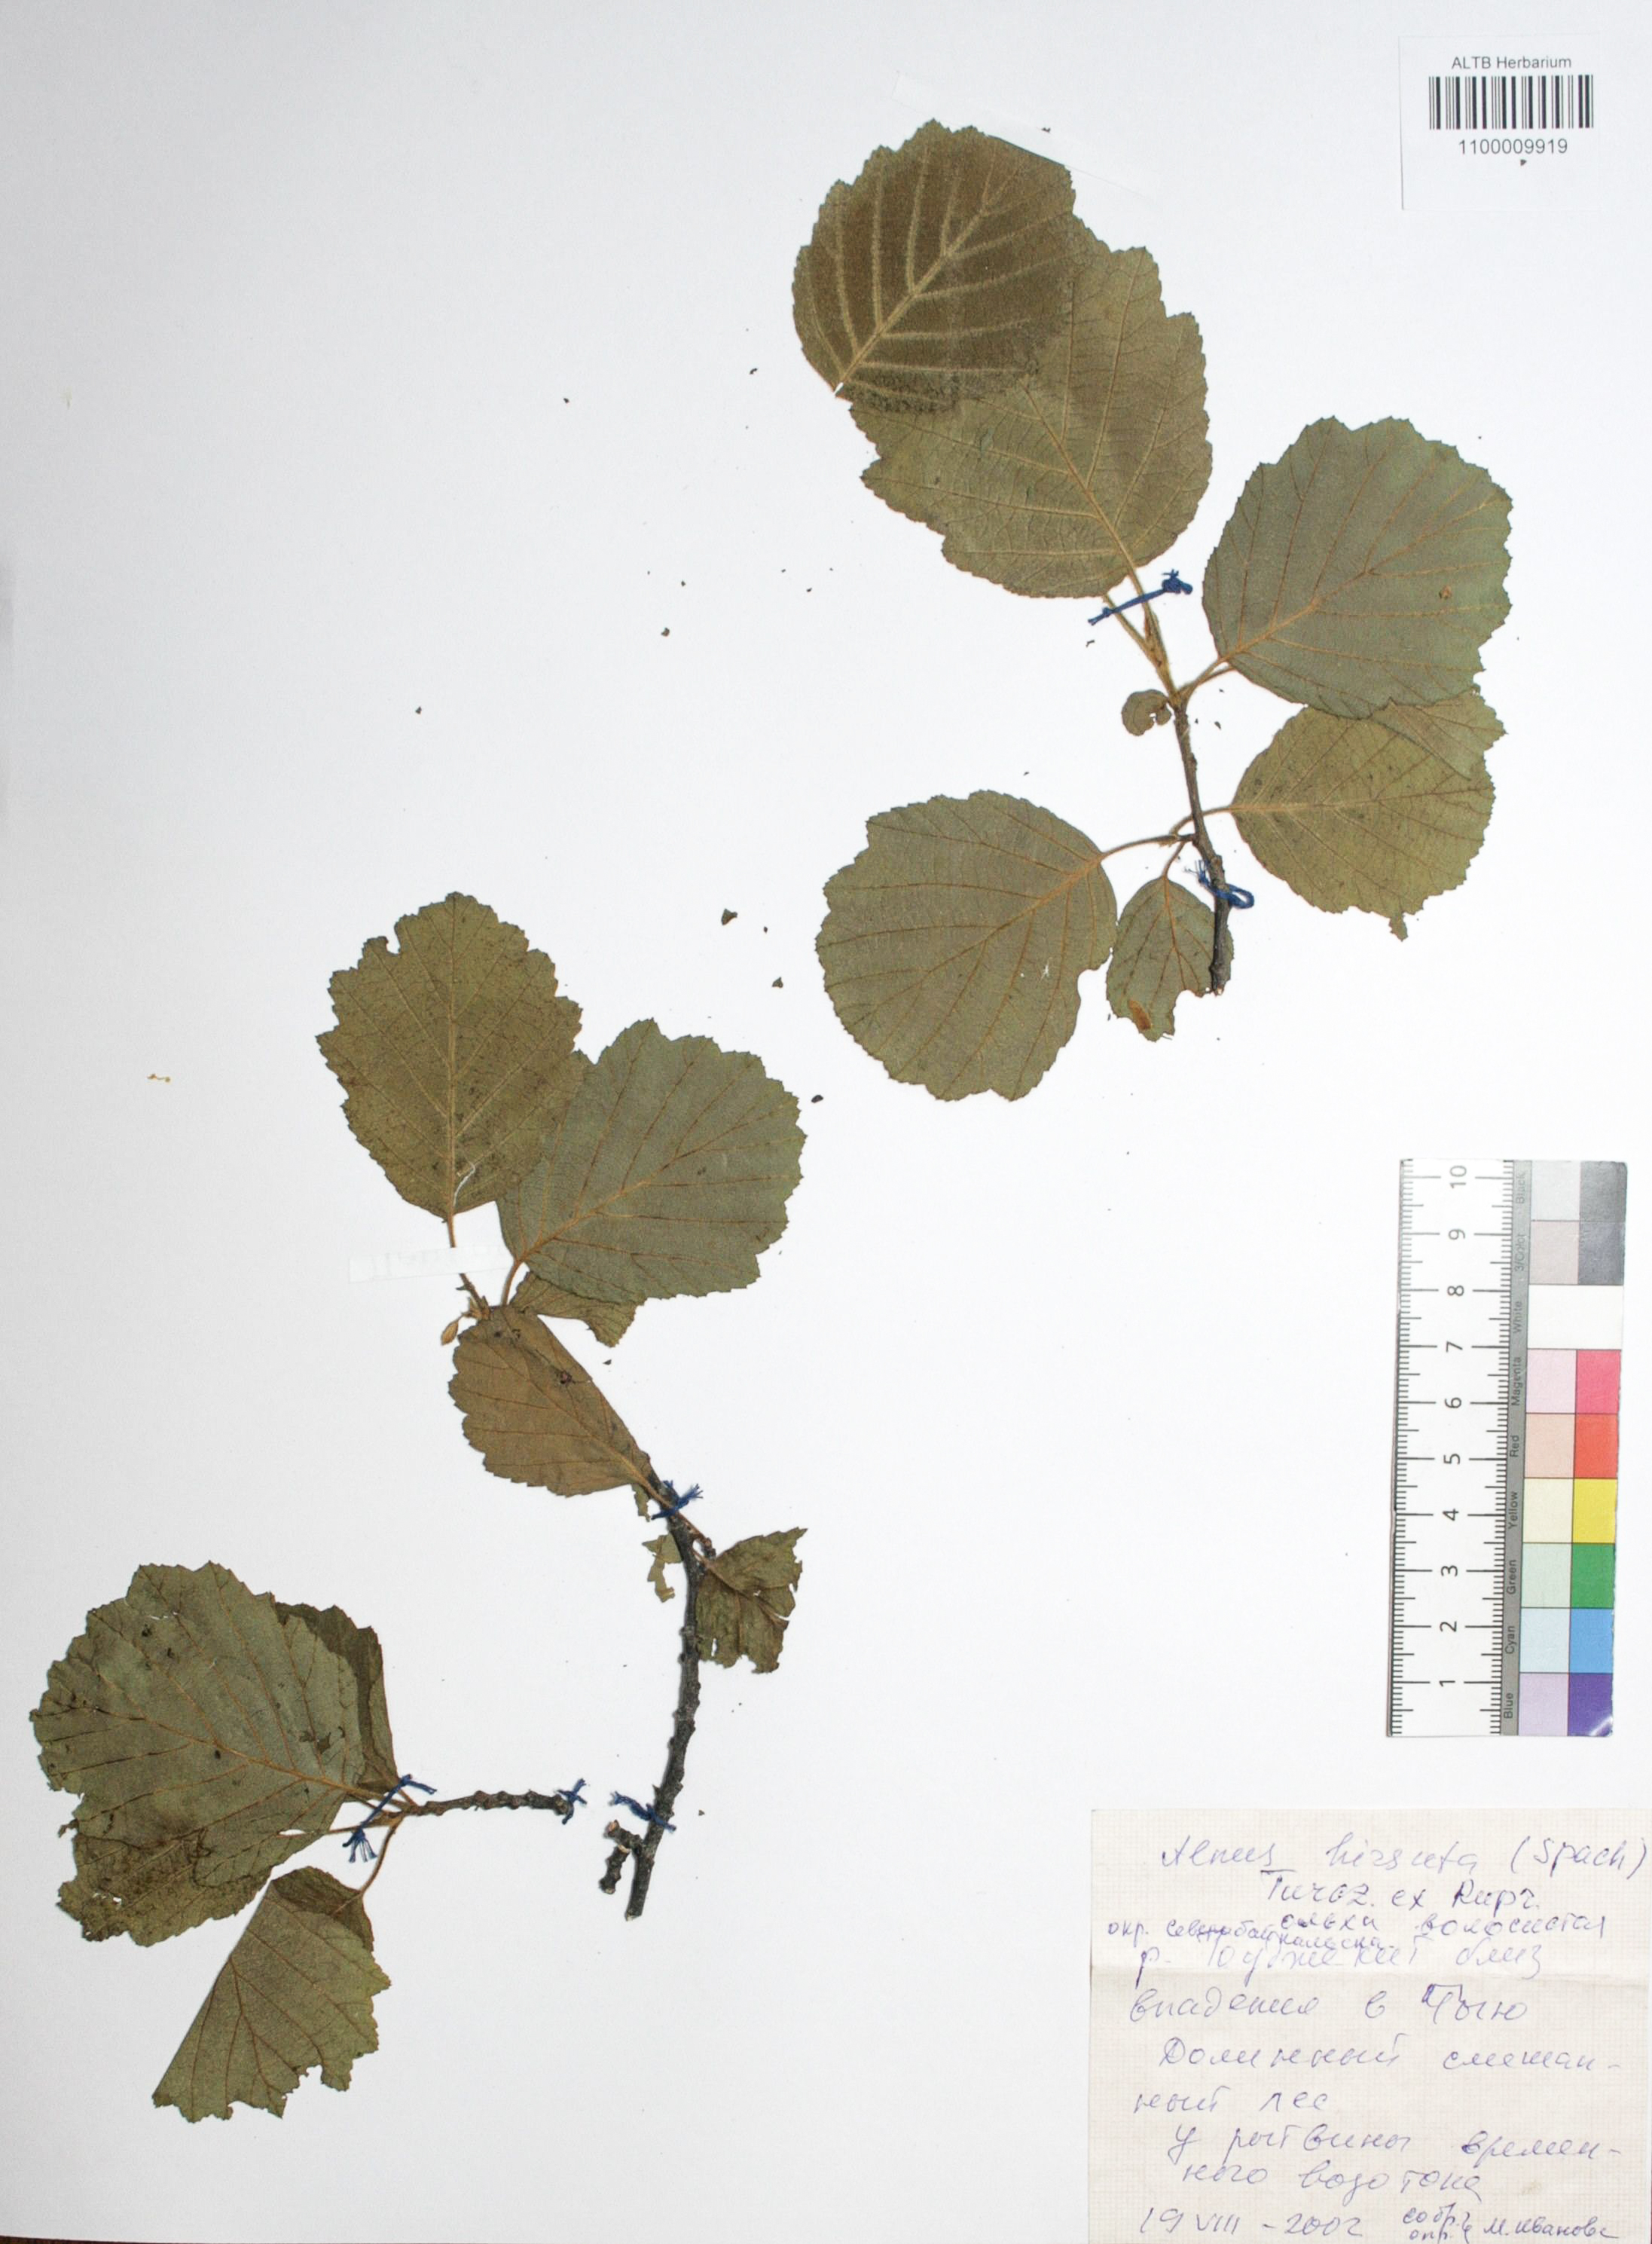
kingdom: Plantae
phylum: Tracheophyta
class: Magnoliopsida
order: Fagales
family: Betulaceae
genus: Alnus
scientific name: Alnus hirsuta
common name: Manchurian alder
